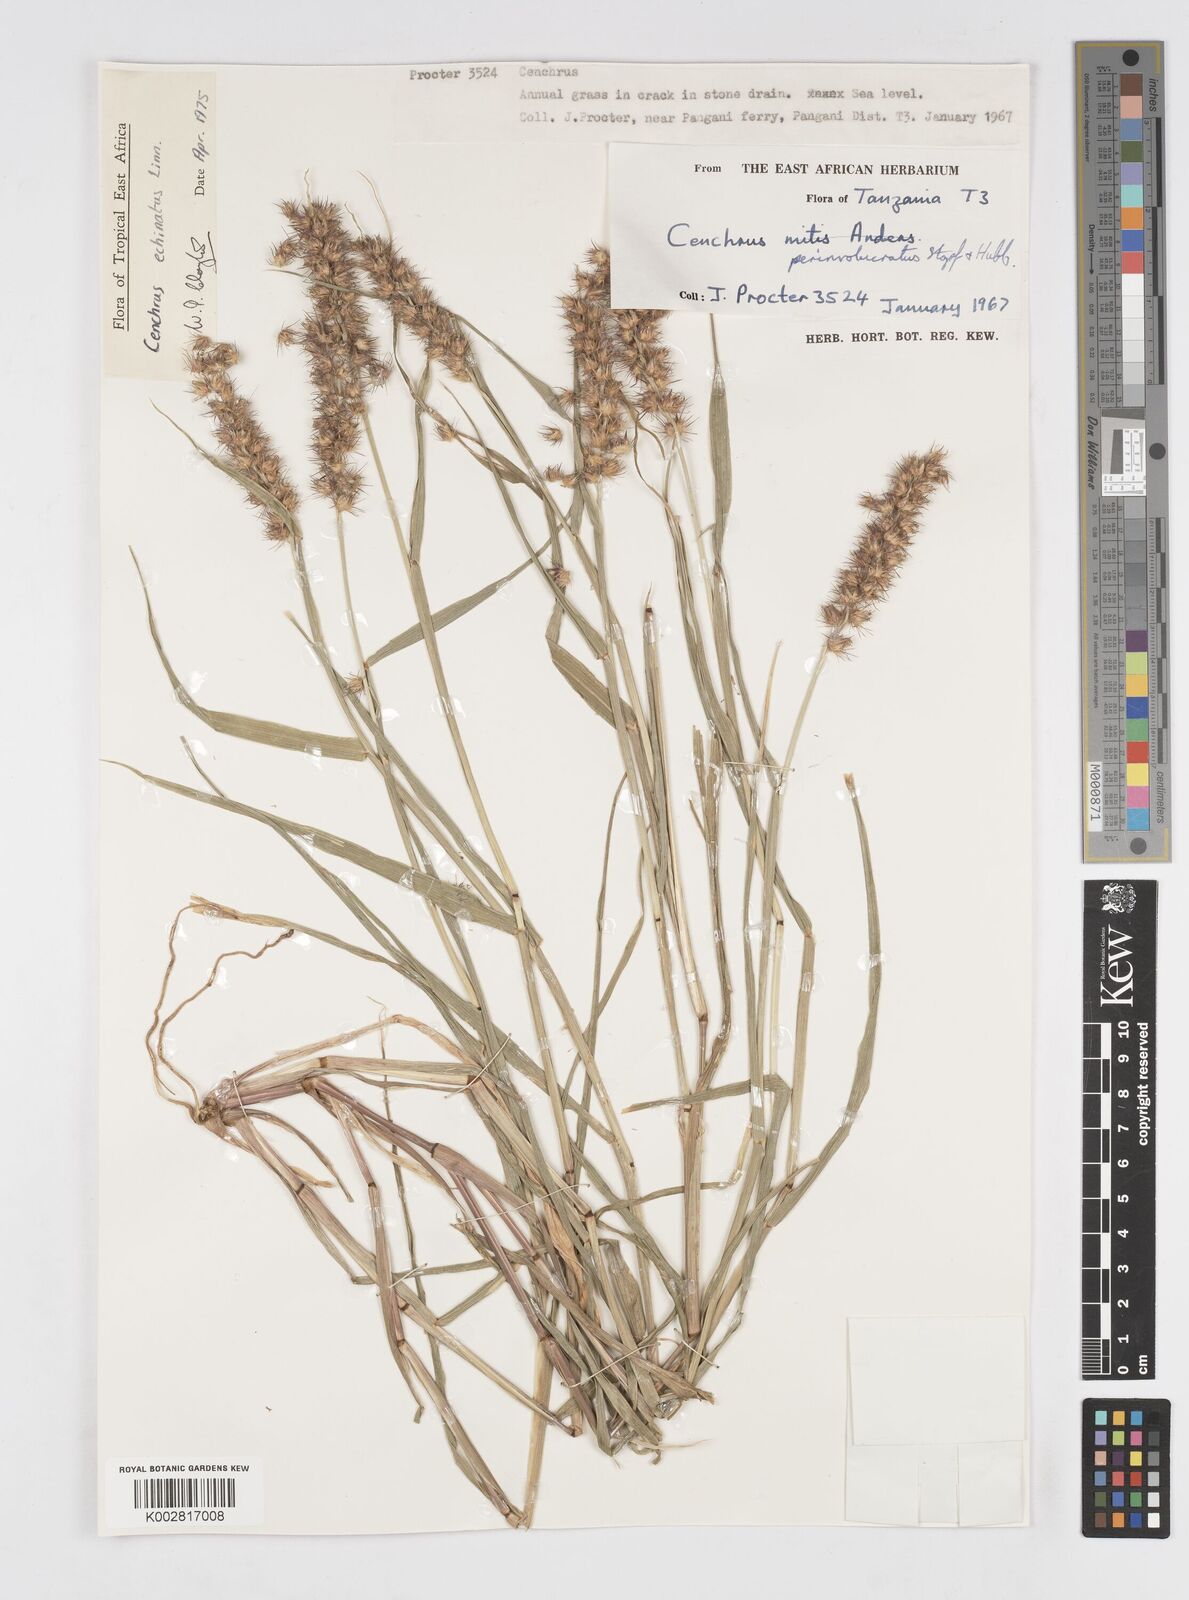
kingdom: Plantae
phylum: Tracheophyta
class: Liliopsida
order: Poales
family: Poaceae
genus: Cenchrus
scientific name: Cenchrus echinatus
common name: Southern sandbur
